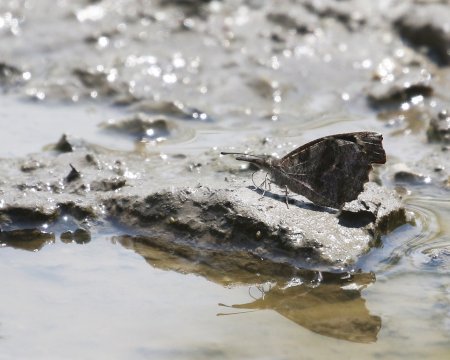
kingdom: Animalia
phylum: Arthropoda
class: Insecta
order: Lepidoptera
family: Nymphalidae
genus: Libytheana
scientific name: Libytheana carinenta
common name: American Snout
